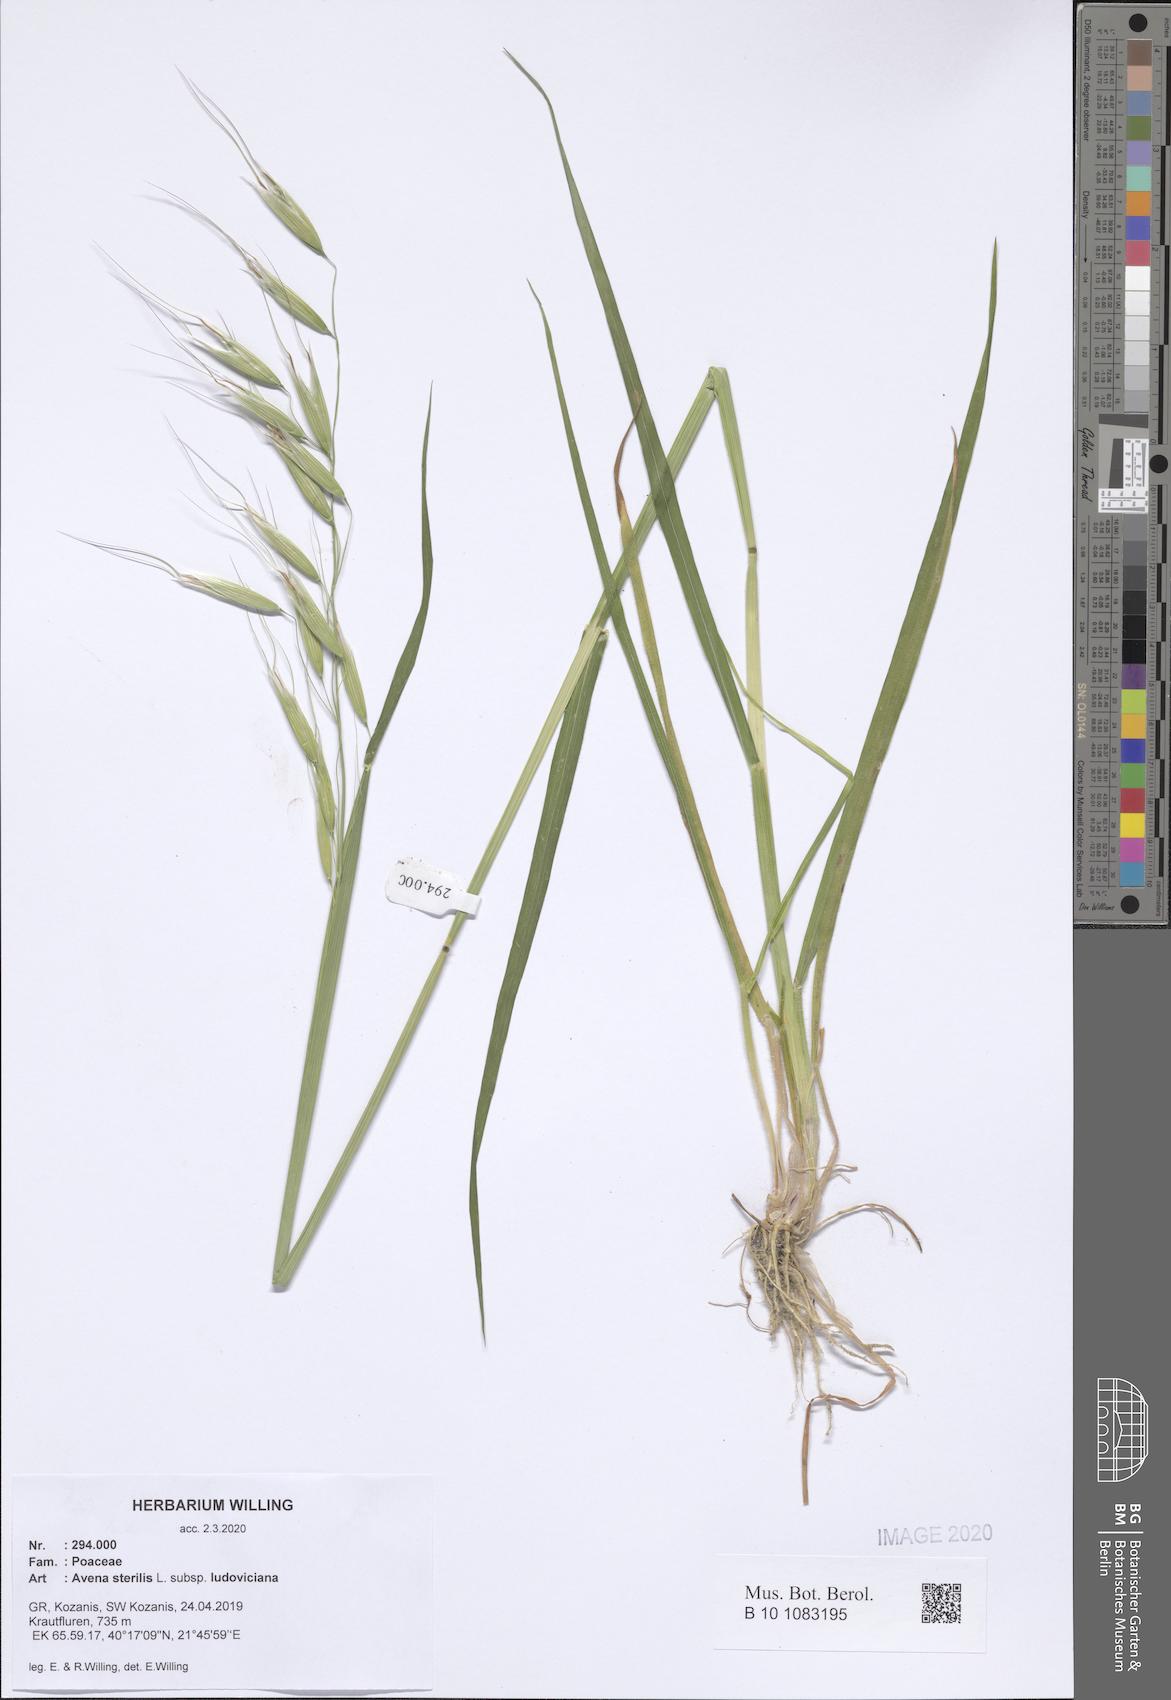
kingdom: Plantae
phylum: Tracheophyta
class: Liliopsida
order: Poales
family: Poaceae
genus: Avena
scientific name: Avena sterilis
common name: Animated oat
